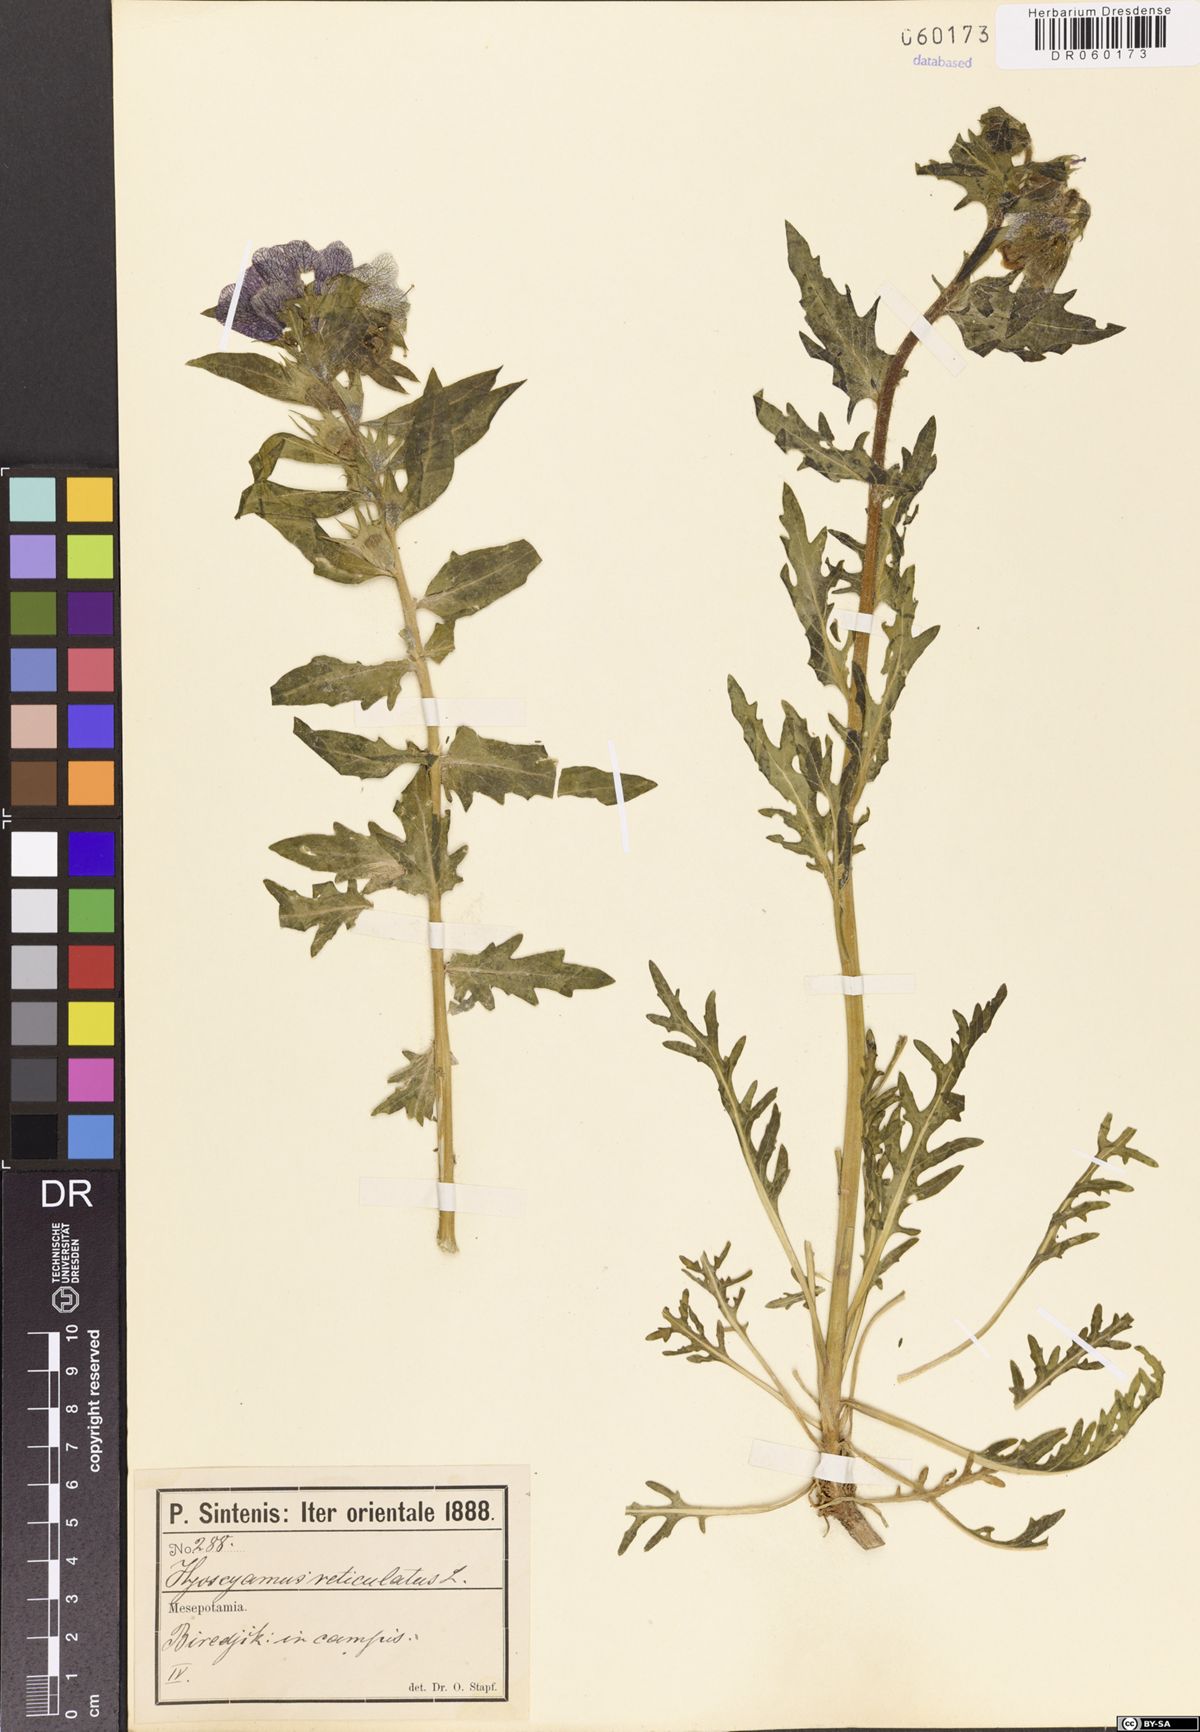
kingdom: Plantae
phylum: Tracheophyta
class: Magnoliopsida
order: Solanales
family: Solanaceae
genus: Hyoscyamus
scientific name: Hyoscyamus reticulatus
